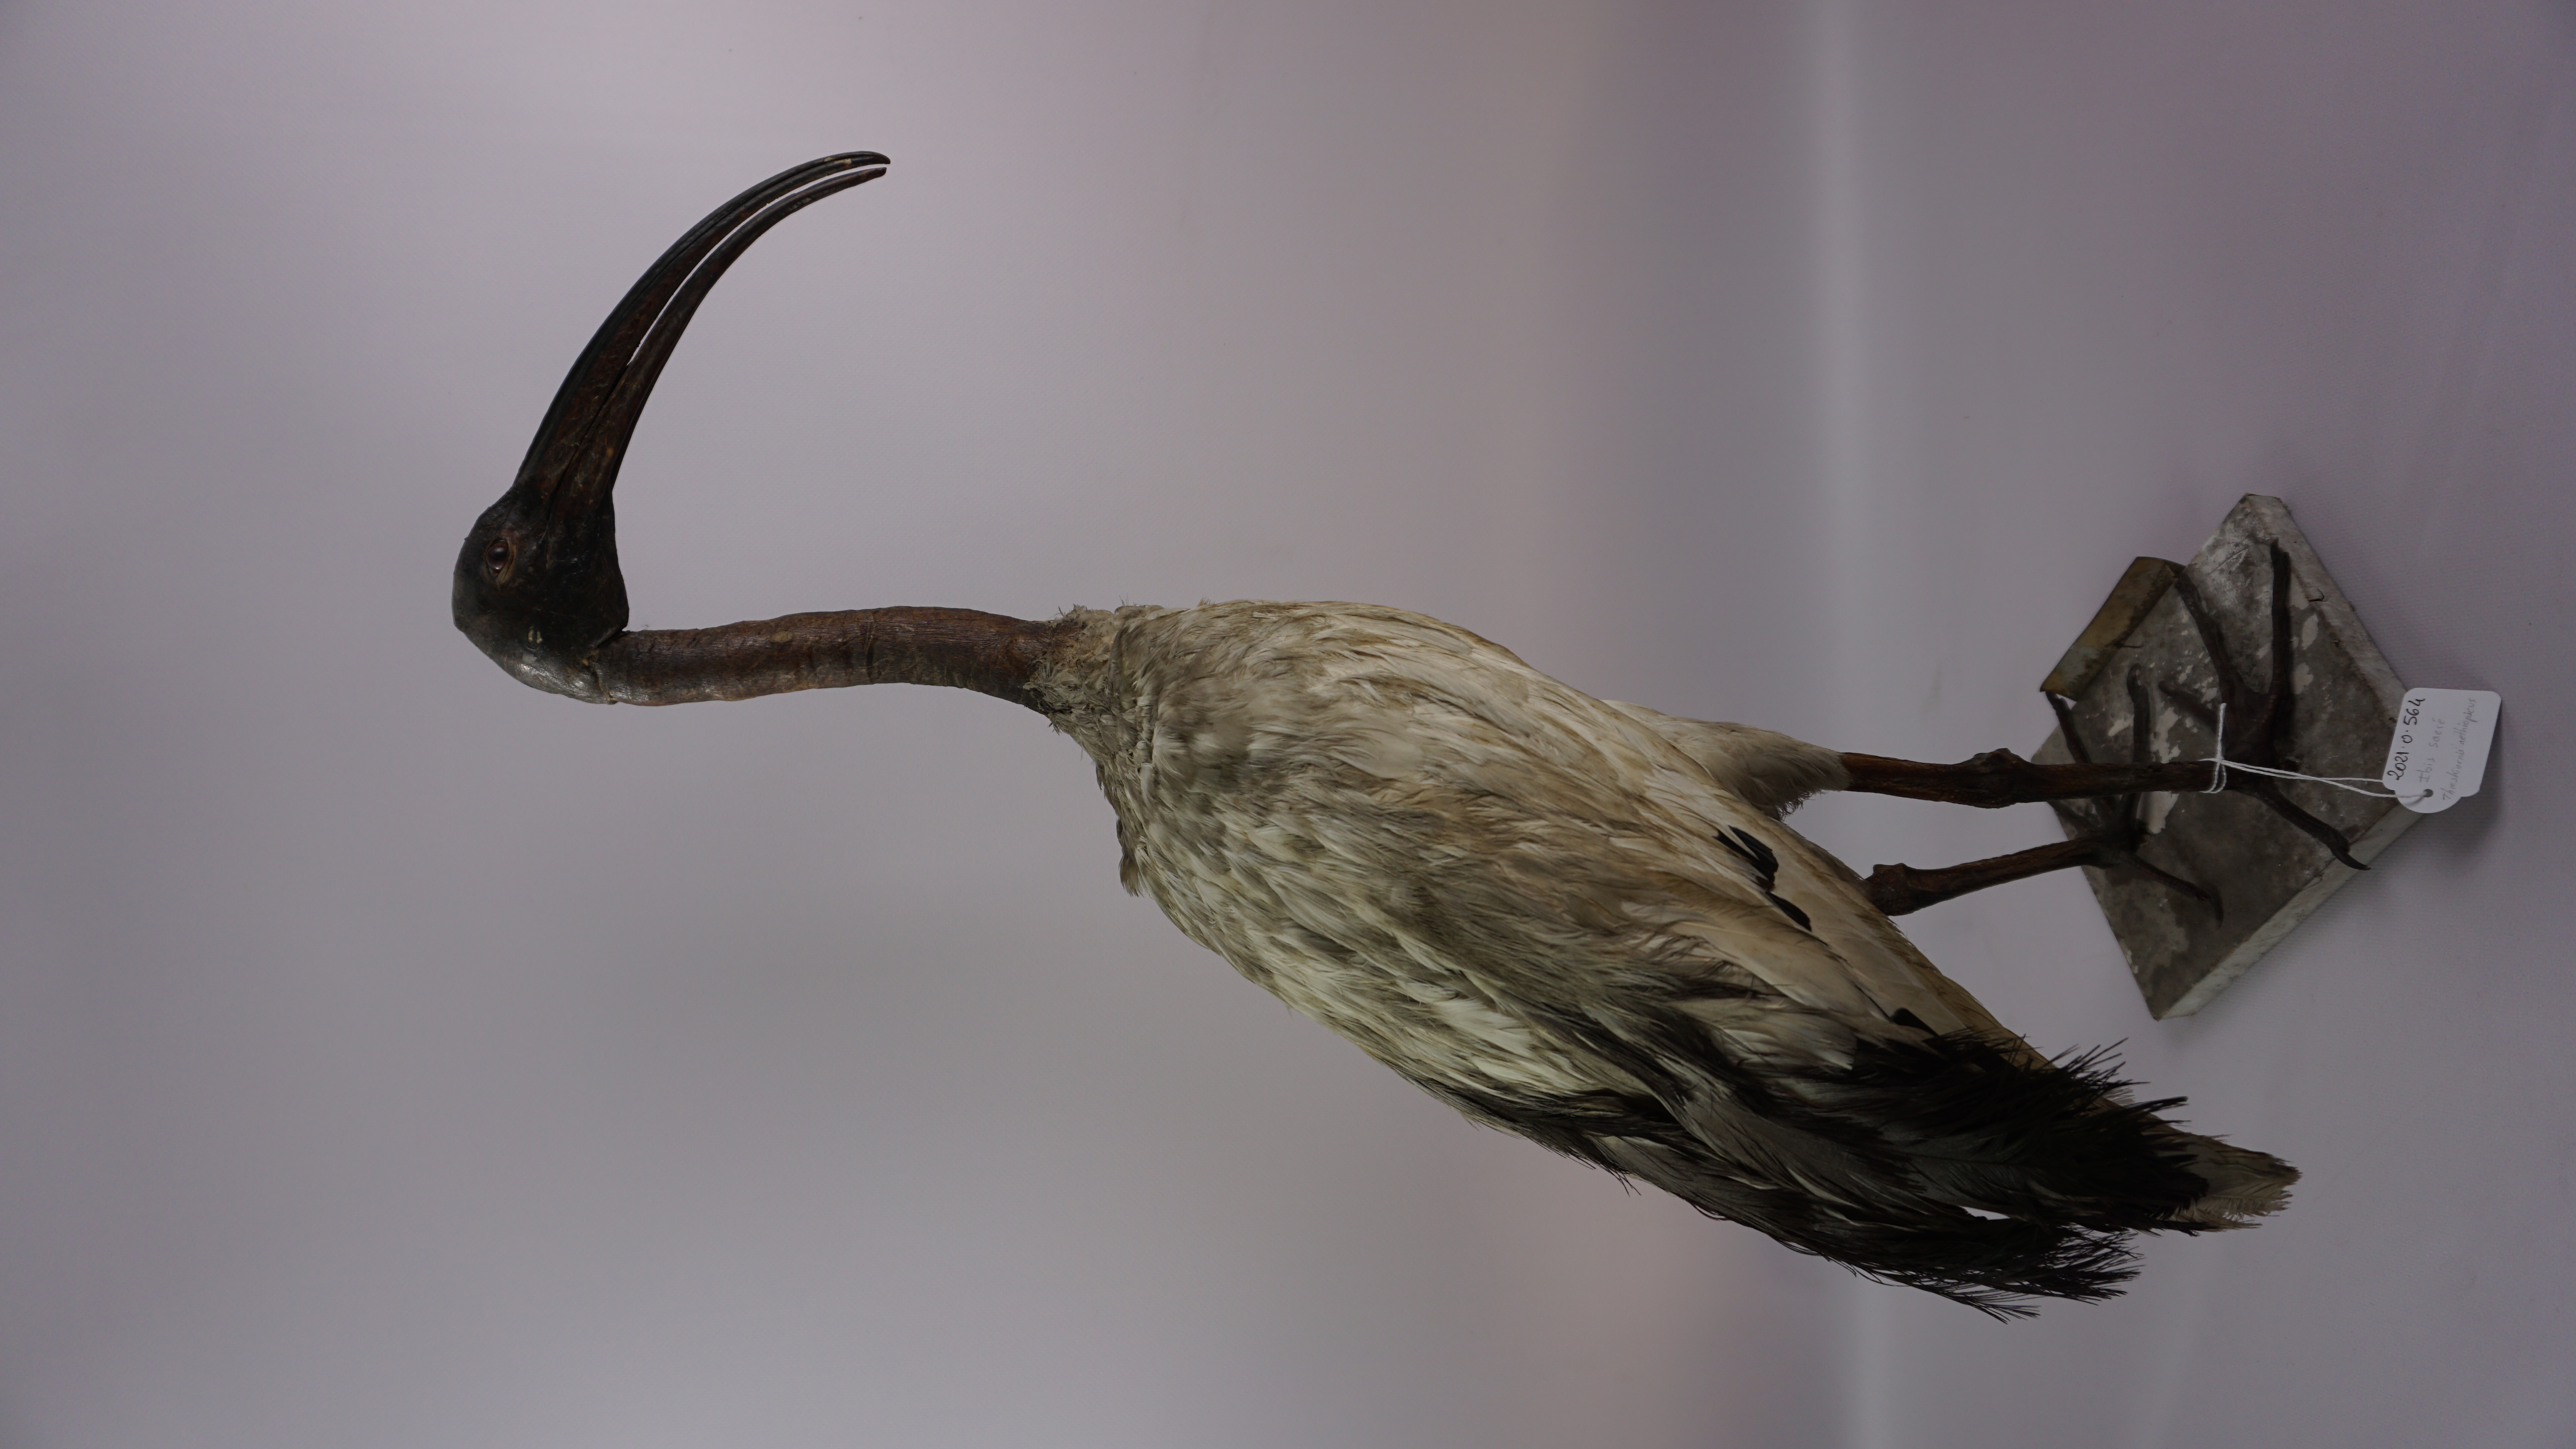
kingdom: Animalia
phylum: Chordata
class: Aves
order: Pelecaniformes
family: Threskiornithidae
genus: Threskiornis
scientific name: Threskiornis aethiopicus
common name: Sacred ibis
